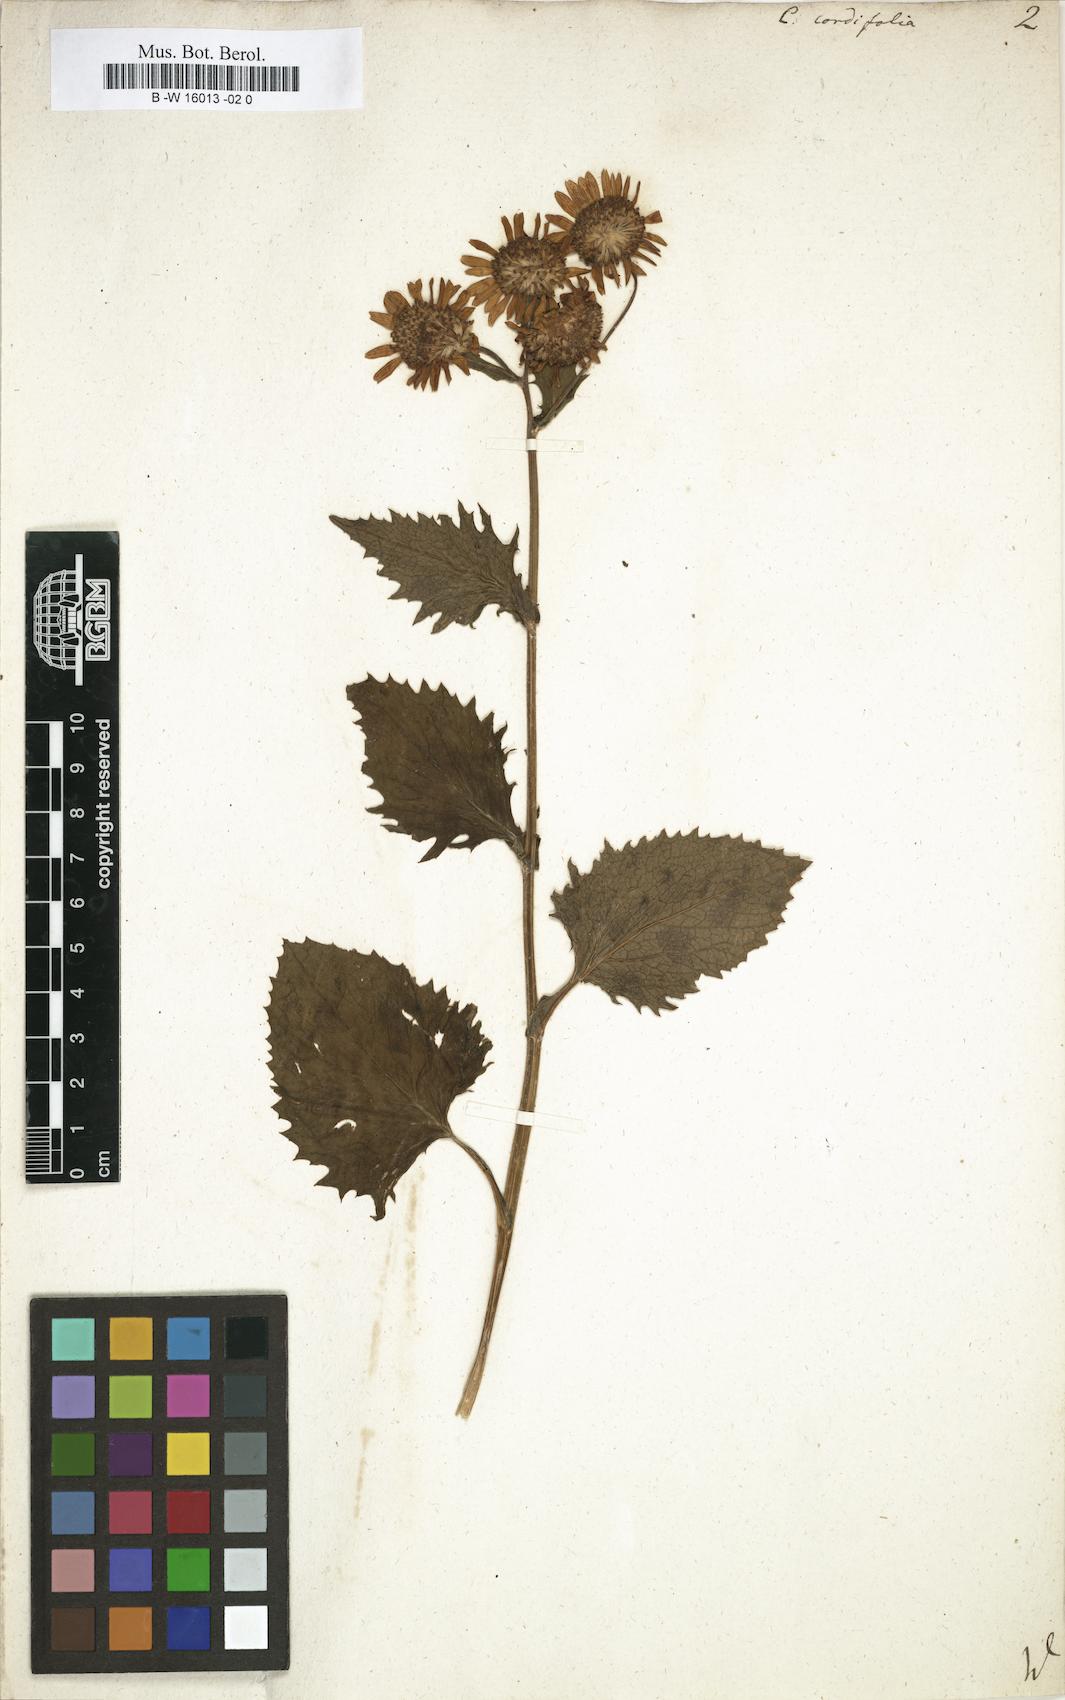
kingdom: Plantae
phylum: Tracheophyta
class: Magnoliopsida
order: Asterales
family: Asteraceae
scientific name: Asteraceae
